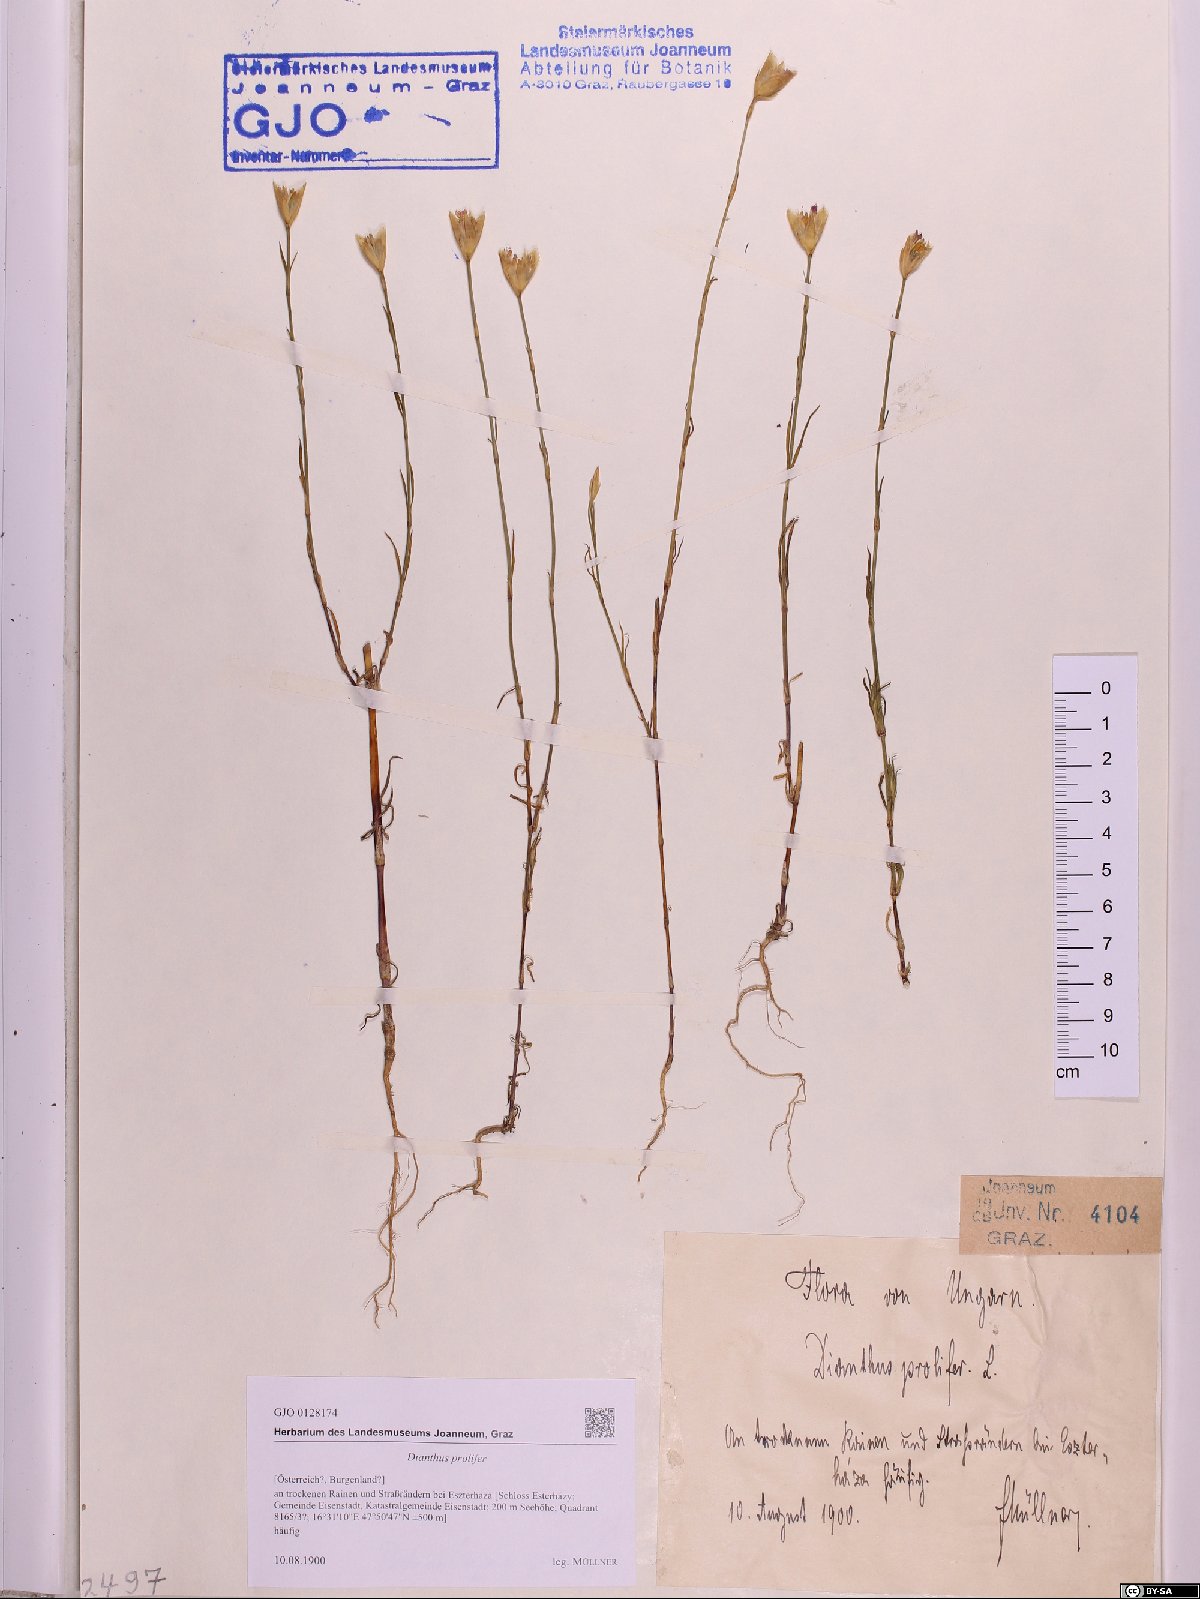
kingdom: Plantae
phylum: Tracheophyta
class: Magnoliopsida
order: Caryophyllales
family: Caryophyllaceae
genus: Petrorhagia
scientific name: Petrorhagia prolifera
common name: Proliferous pink
